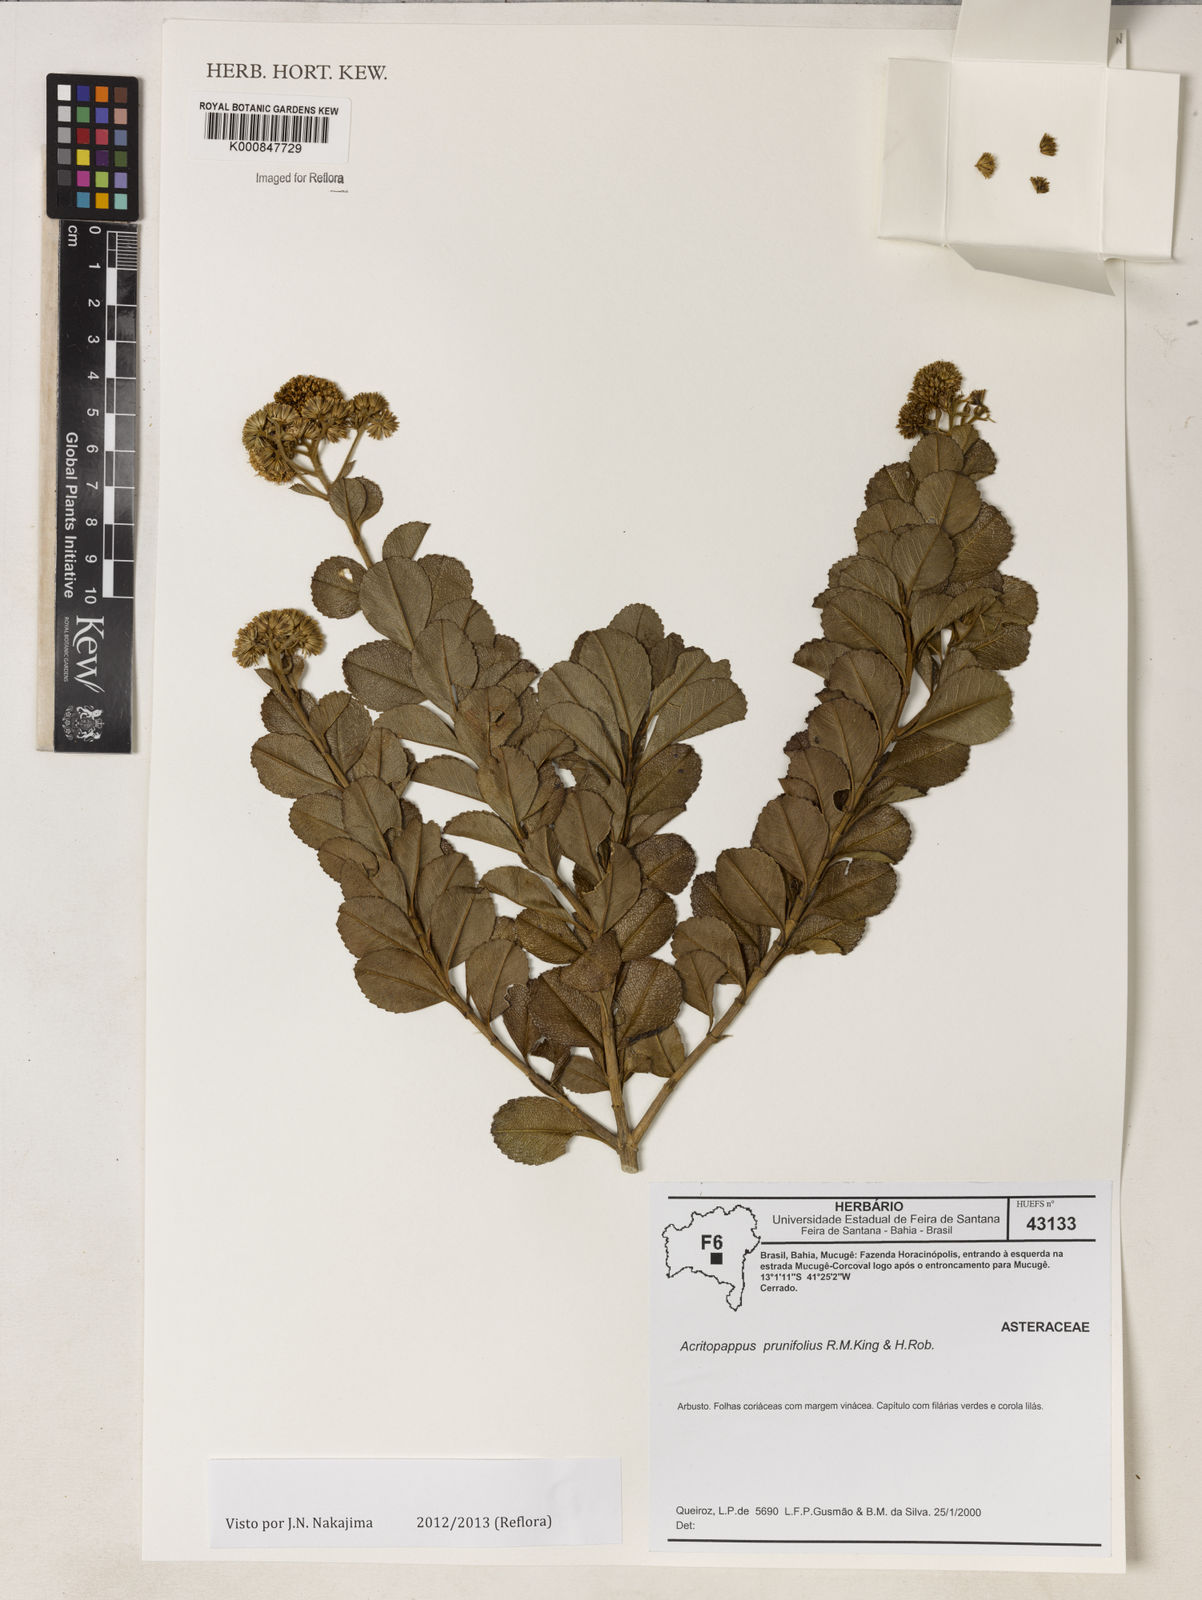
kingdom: Plantae
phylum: Tracheophyta
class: Magnoliopsida
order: Asterales
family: Asteraceae
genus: Acritopappus
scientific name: Acritopappus prunifolius
